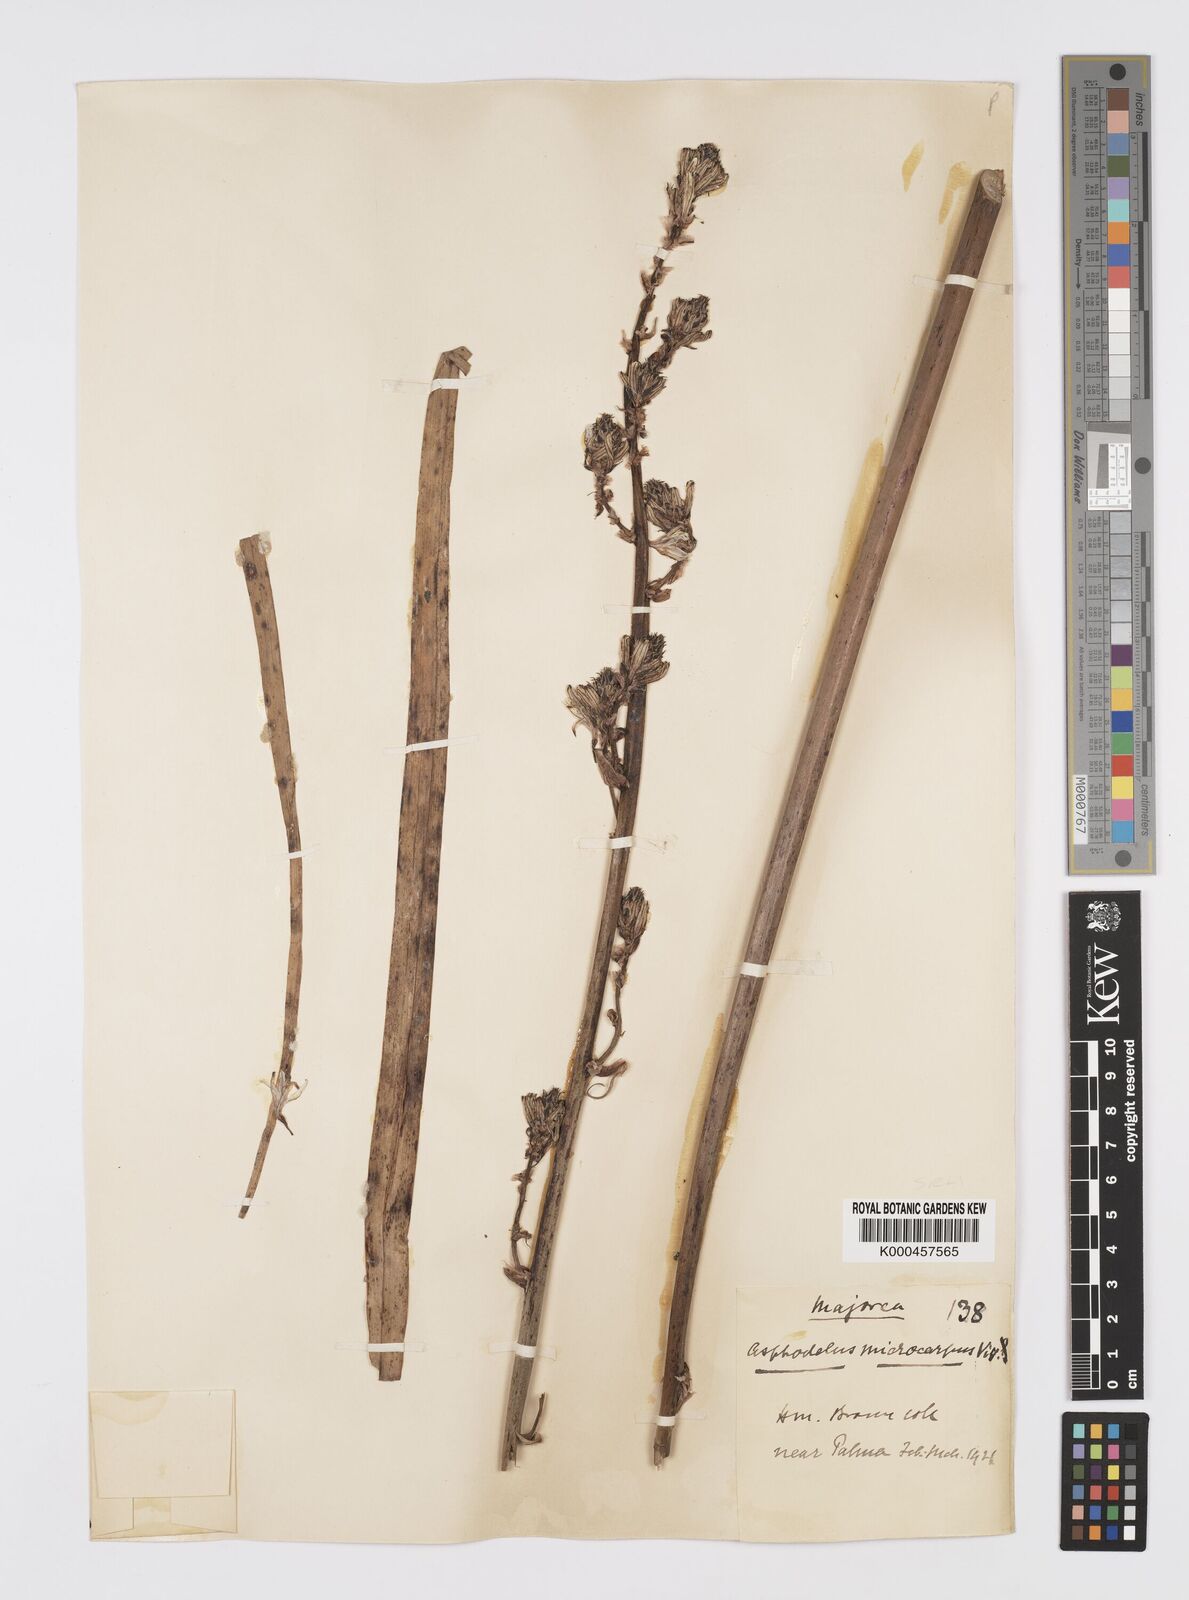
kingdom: Plantae
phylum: Tracheophyta
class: Liliopsida
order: Asparagales
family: Asphodelaceae
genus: Asphodelus
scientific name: Asphodelus aestivus
